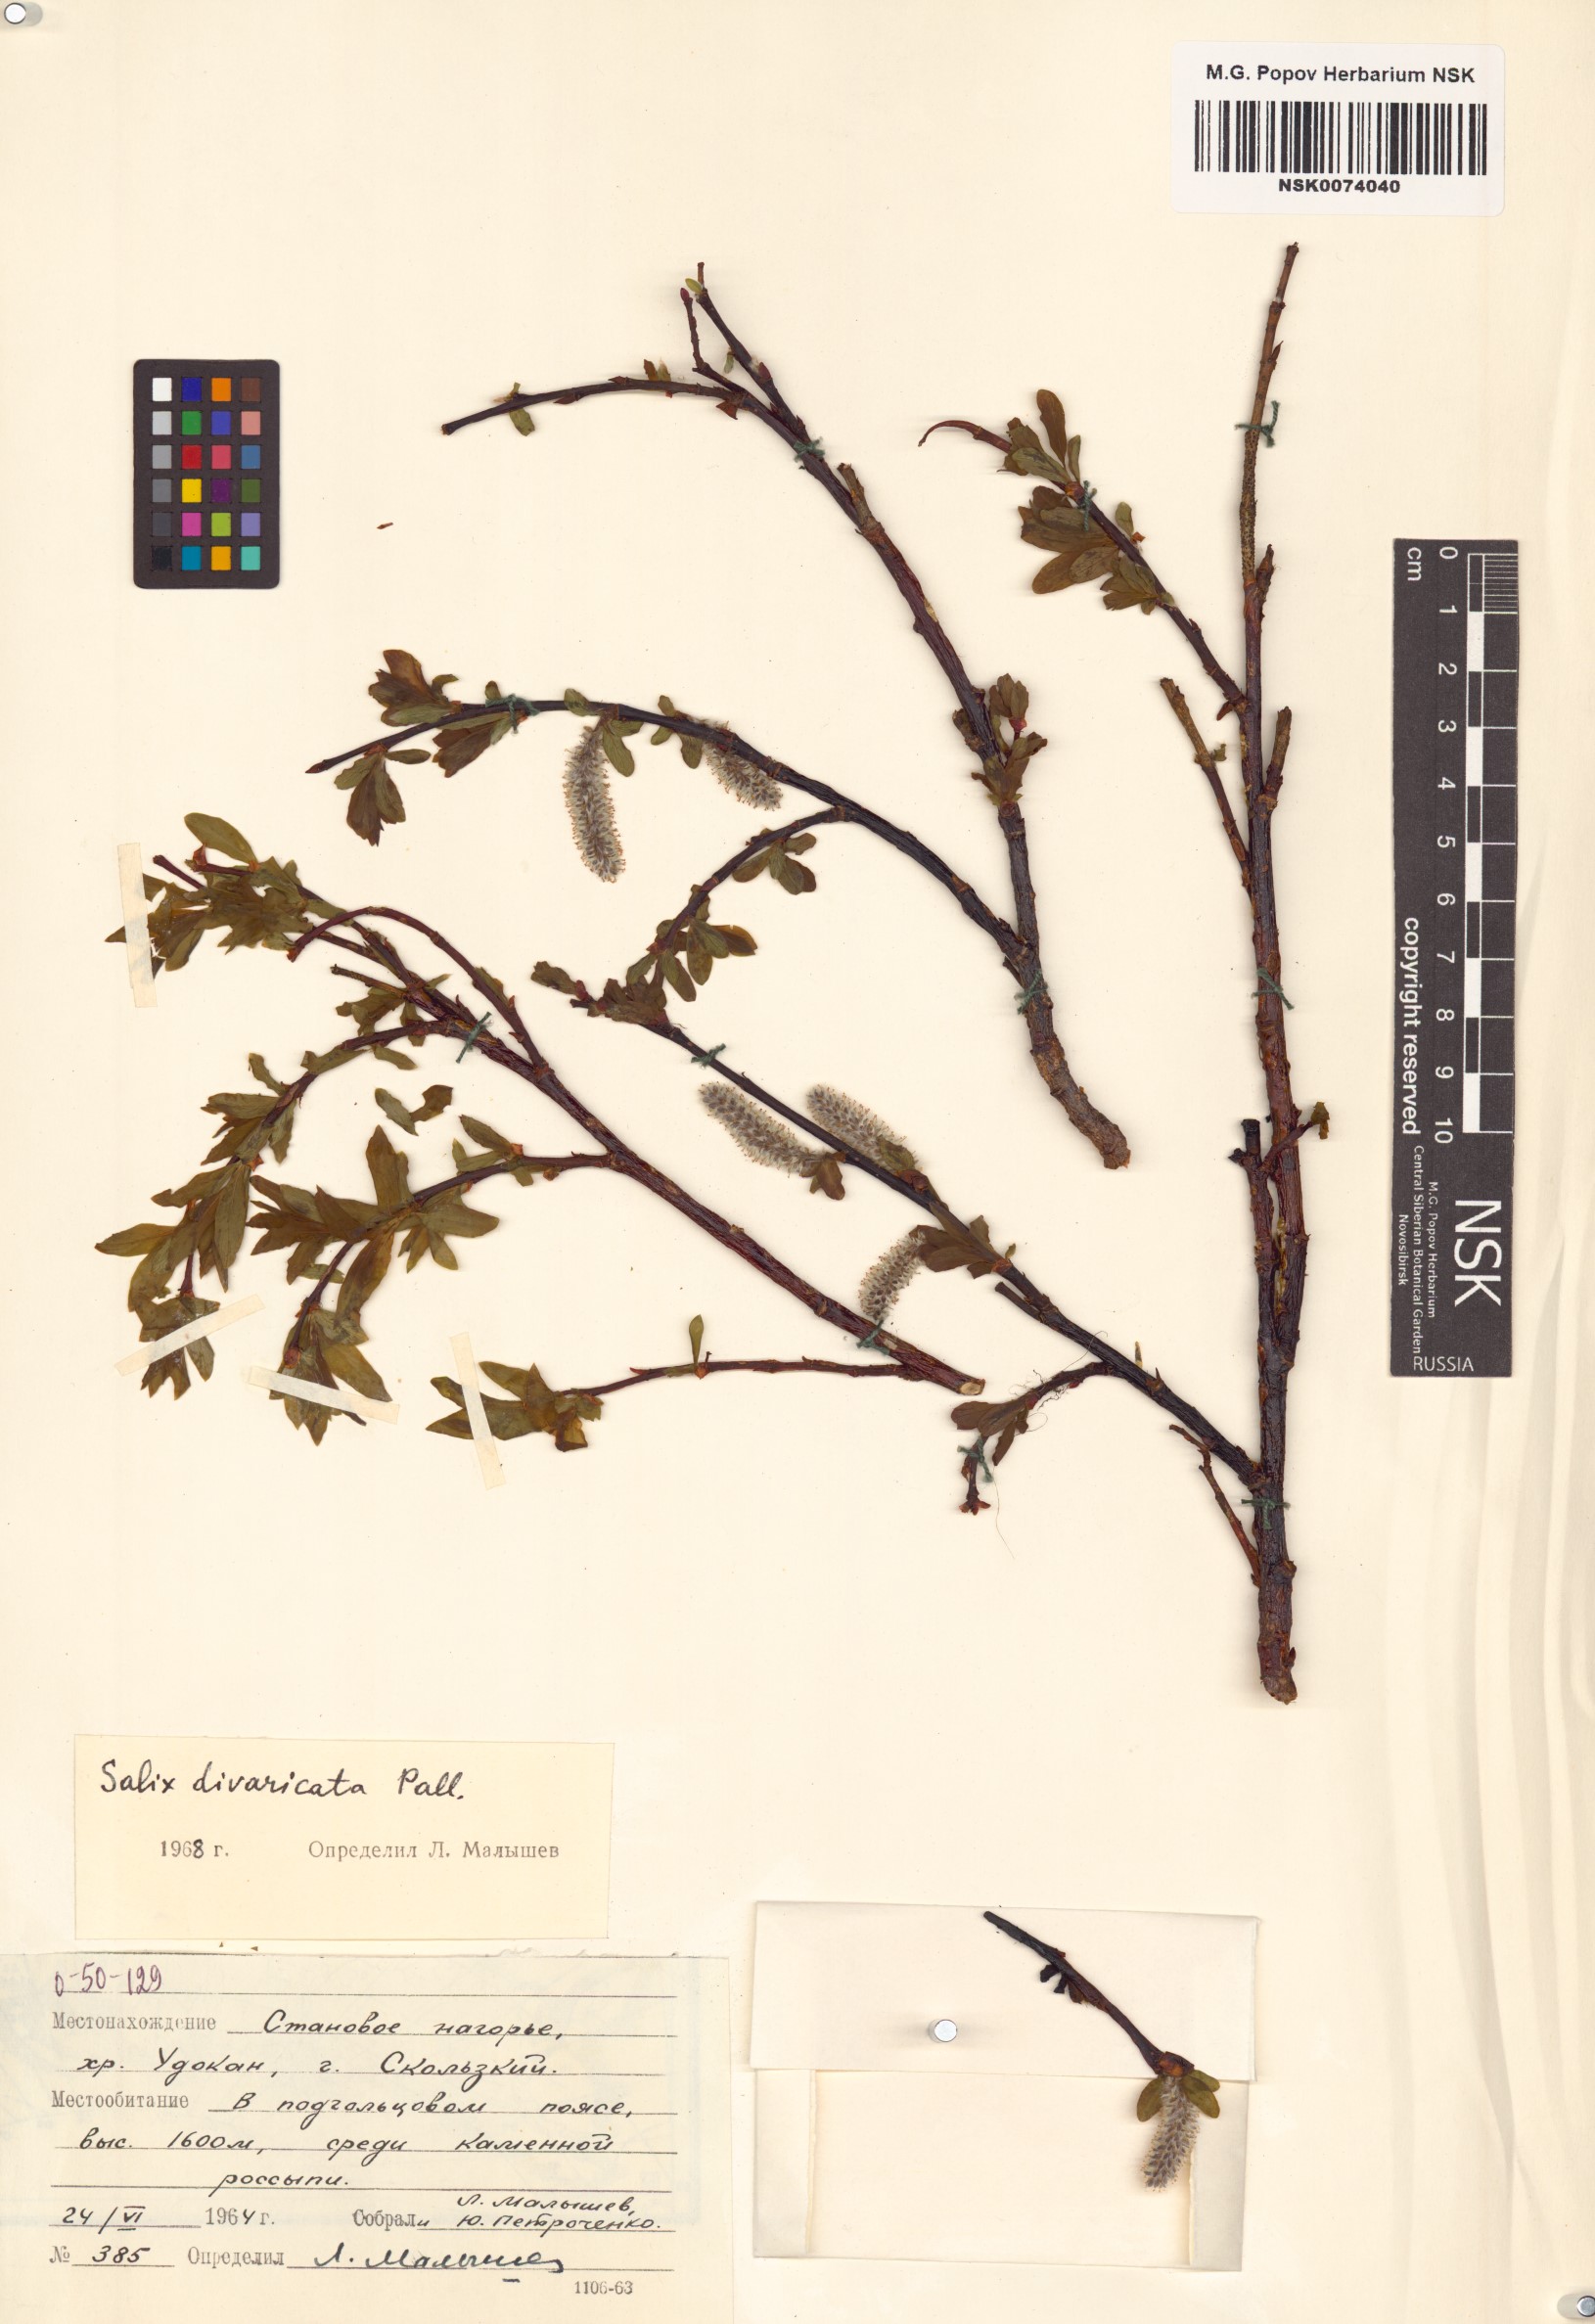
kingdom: Plantae
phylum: Tracheophyta
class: Magnoliopsida
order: Malpighiales
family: Salicaceae
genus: Salix
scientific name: Salix divaricata
